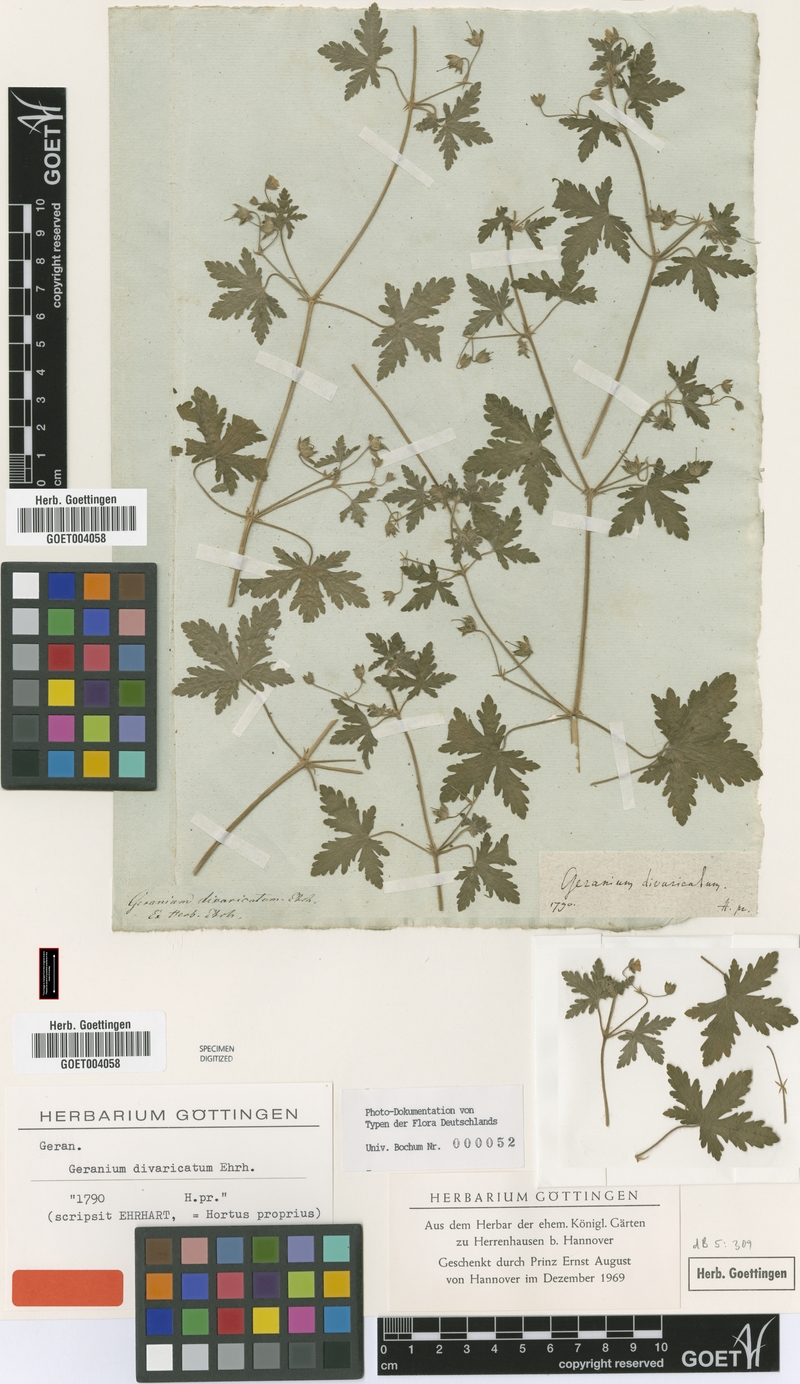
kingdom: Plantae
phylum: Tracheophyta
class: Magnoliopsida
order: Geraniales
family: Geraniaceae
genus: Geranium
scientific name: Geranium divaricatum
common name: Spreading crane's-bill
